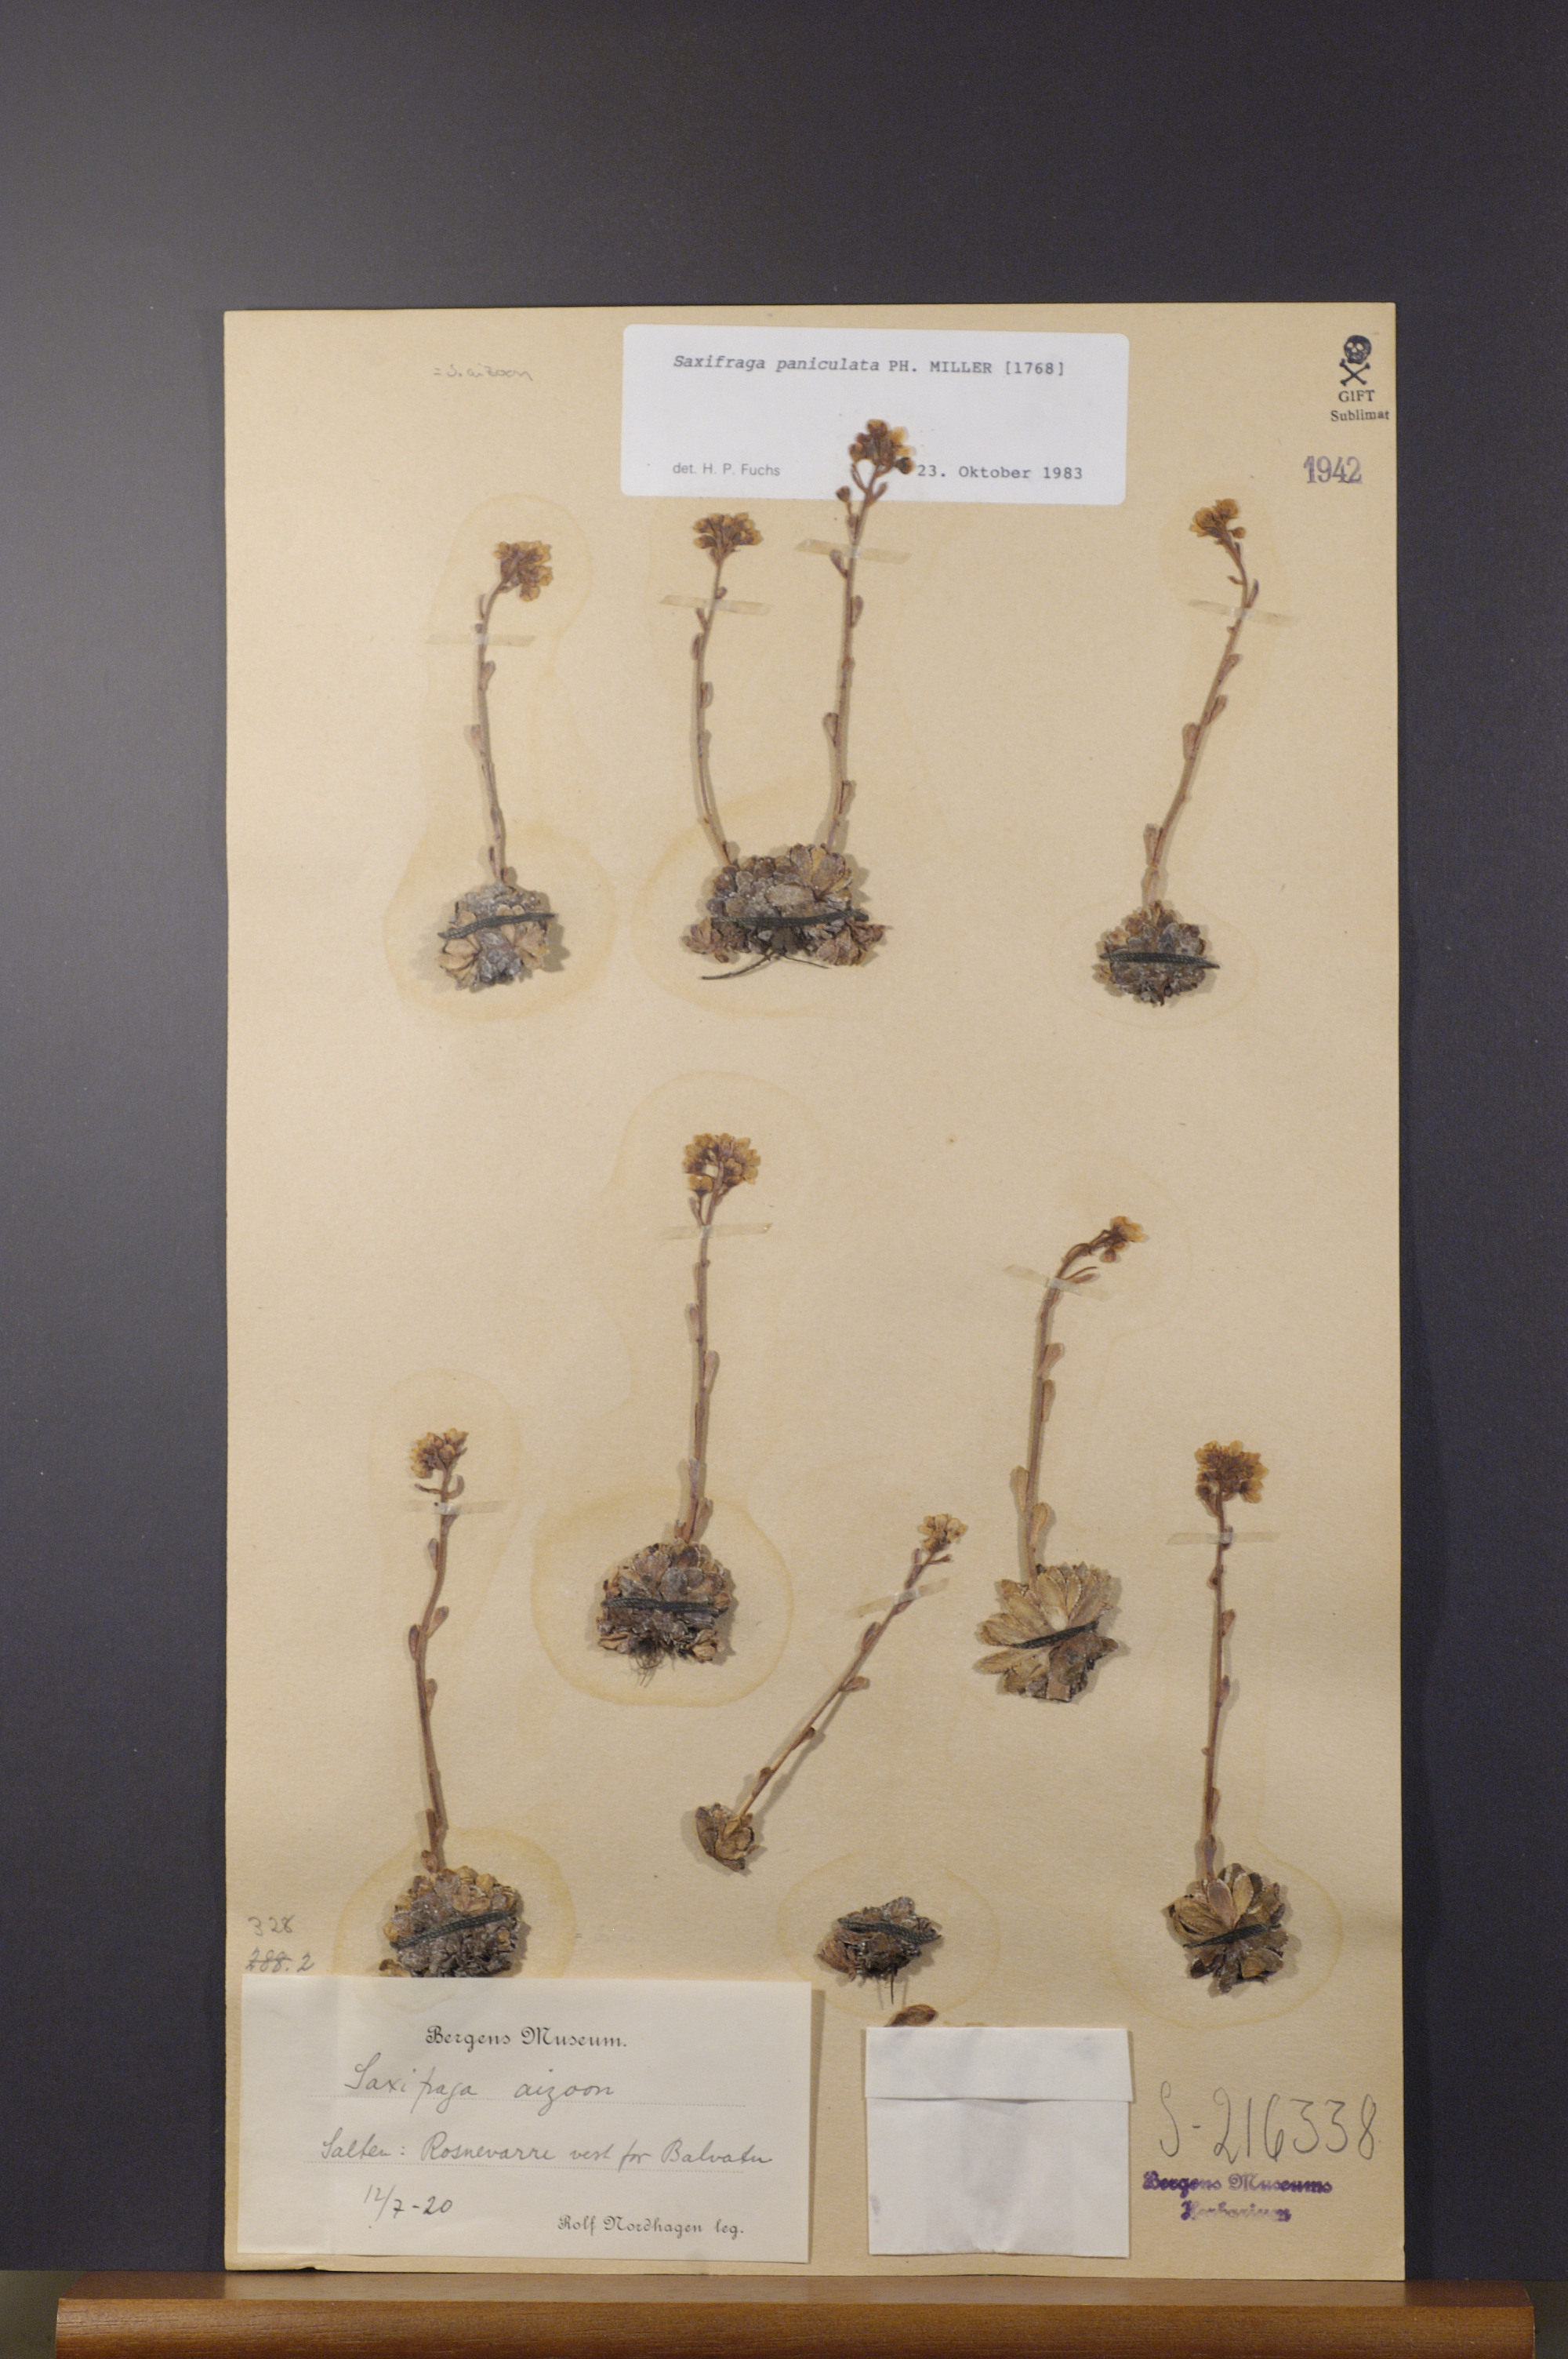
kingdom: Plantae
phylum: Tracheophyta
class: Magnoliopsida
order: Saxifragales
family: Saxifragaceae
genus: Saxifraga
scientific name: Saxifraga paniculata
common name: Livelong saxifrage
